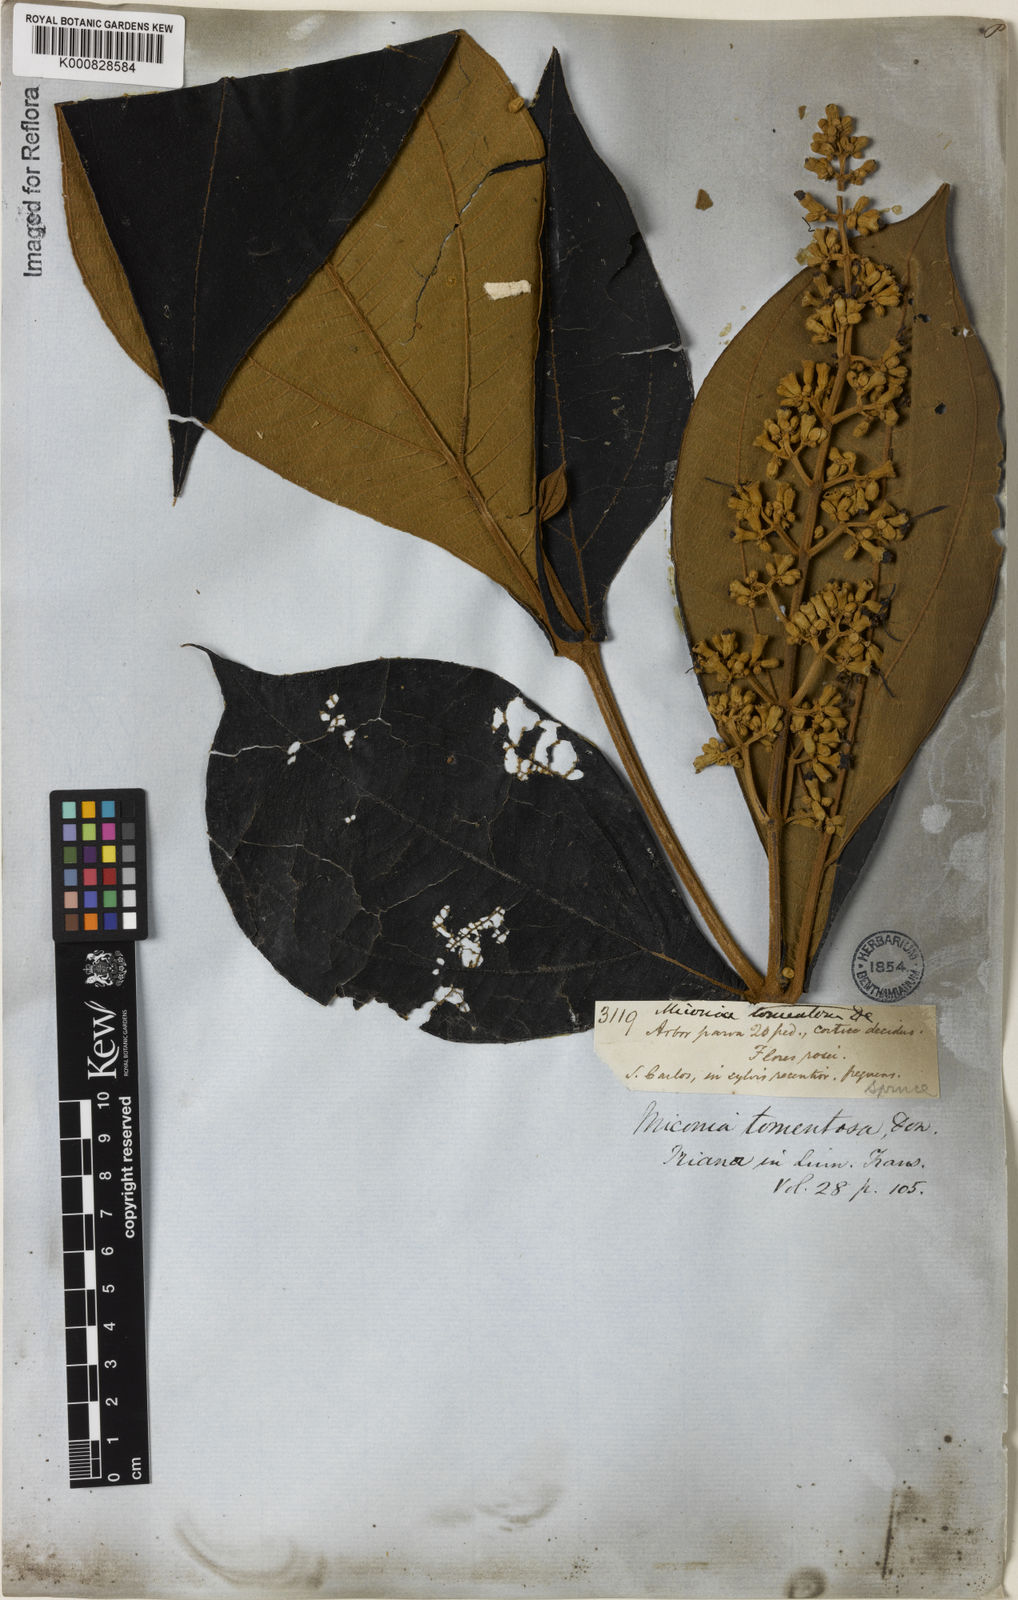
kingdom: Plantae
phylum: Tracheophyta
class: Magnoliopsida
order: Myrtales
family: Melastomataceae
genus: Miconia
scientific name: Miconia tomentosa
